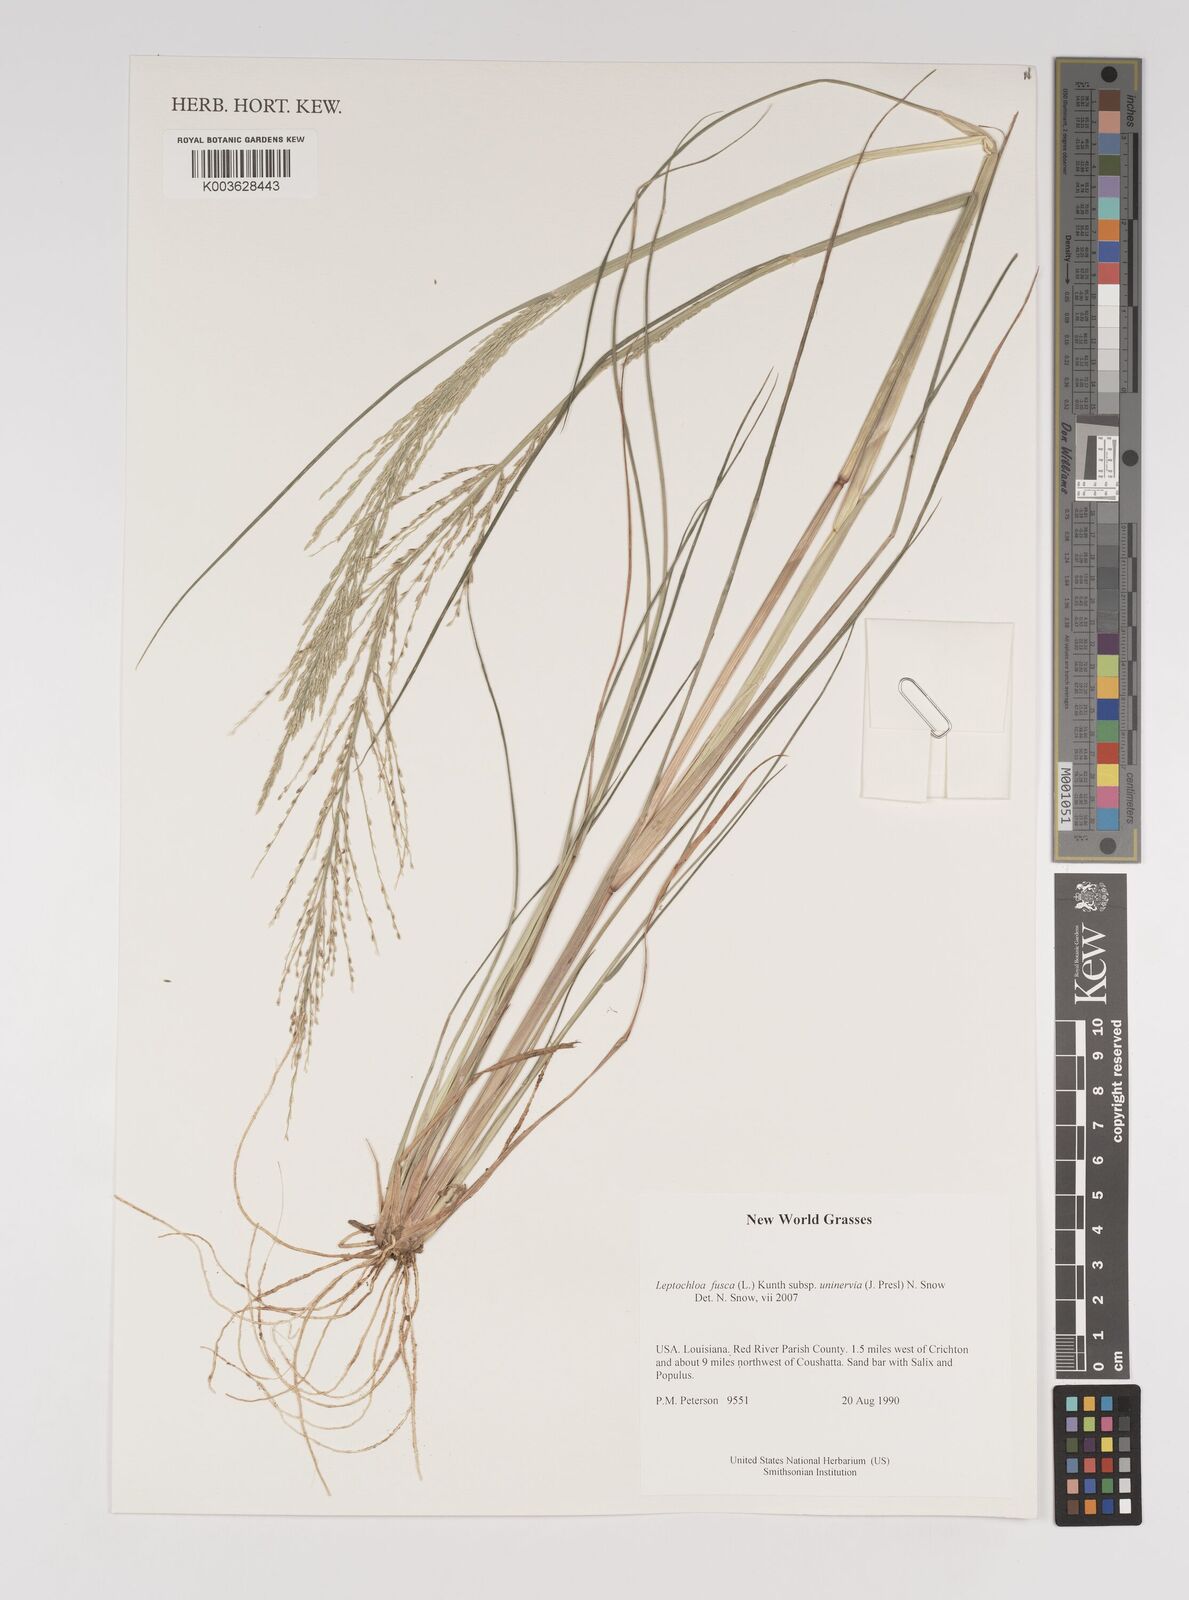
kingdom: Plantae
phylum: Tracheophyta
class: Liliopsida
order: Poales
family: Poaceae
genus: Diplachne
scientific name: Diplachne fusca
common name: Brown beetle grass
